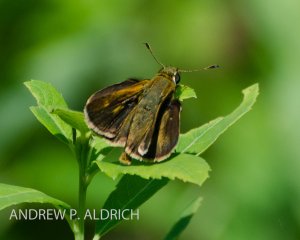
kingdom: Animalia
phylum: Arthropoda
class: Insecta
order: Lepidoptera
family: Hesperiidae
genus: Polites
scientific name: Polites egeremet
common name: Northern Broken-Dash
